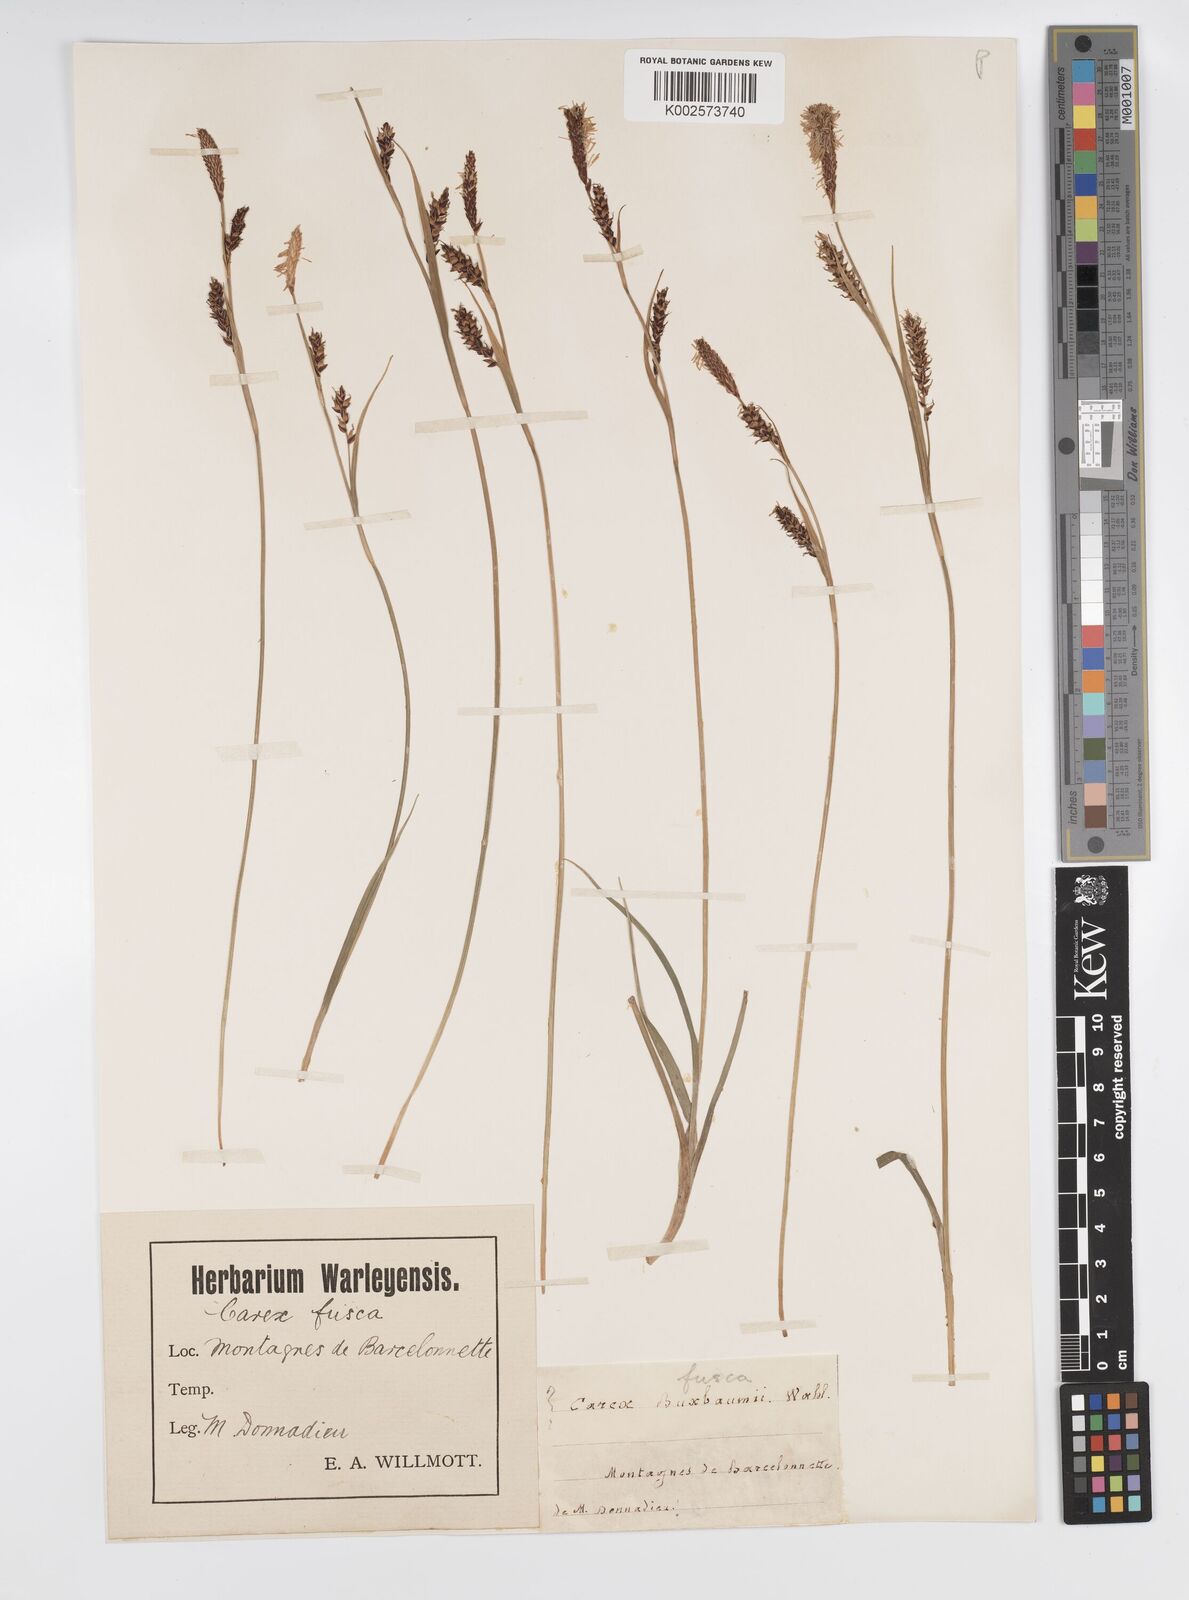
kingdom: Plantae
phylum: Tracheophyta
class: Liliopsida
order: Poales
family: Cyperaceae
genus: Carex
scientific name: Carex panicea
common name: Carnation sedge
